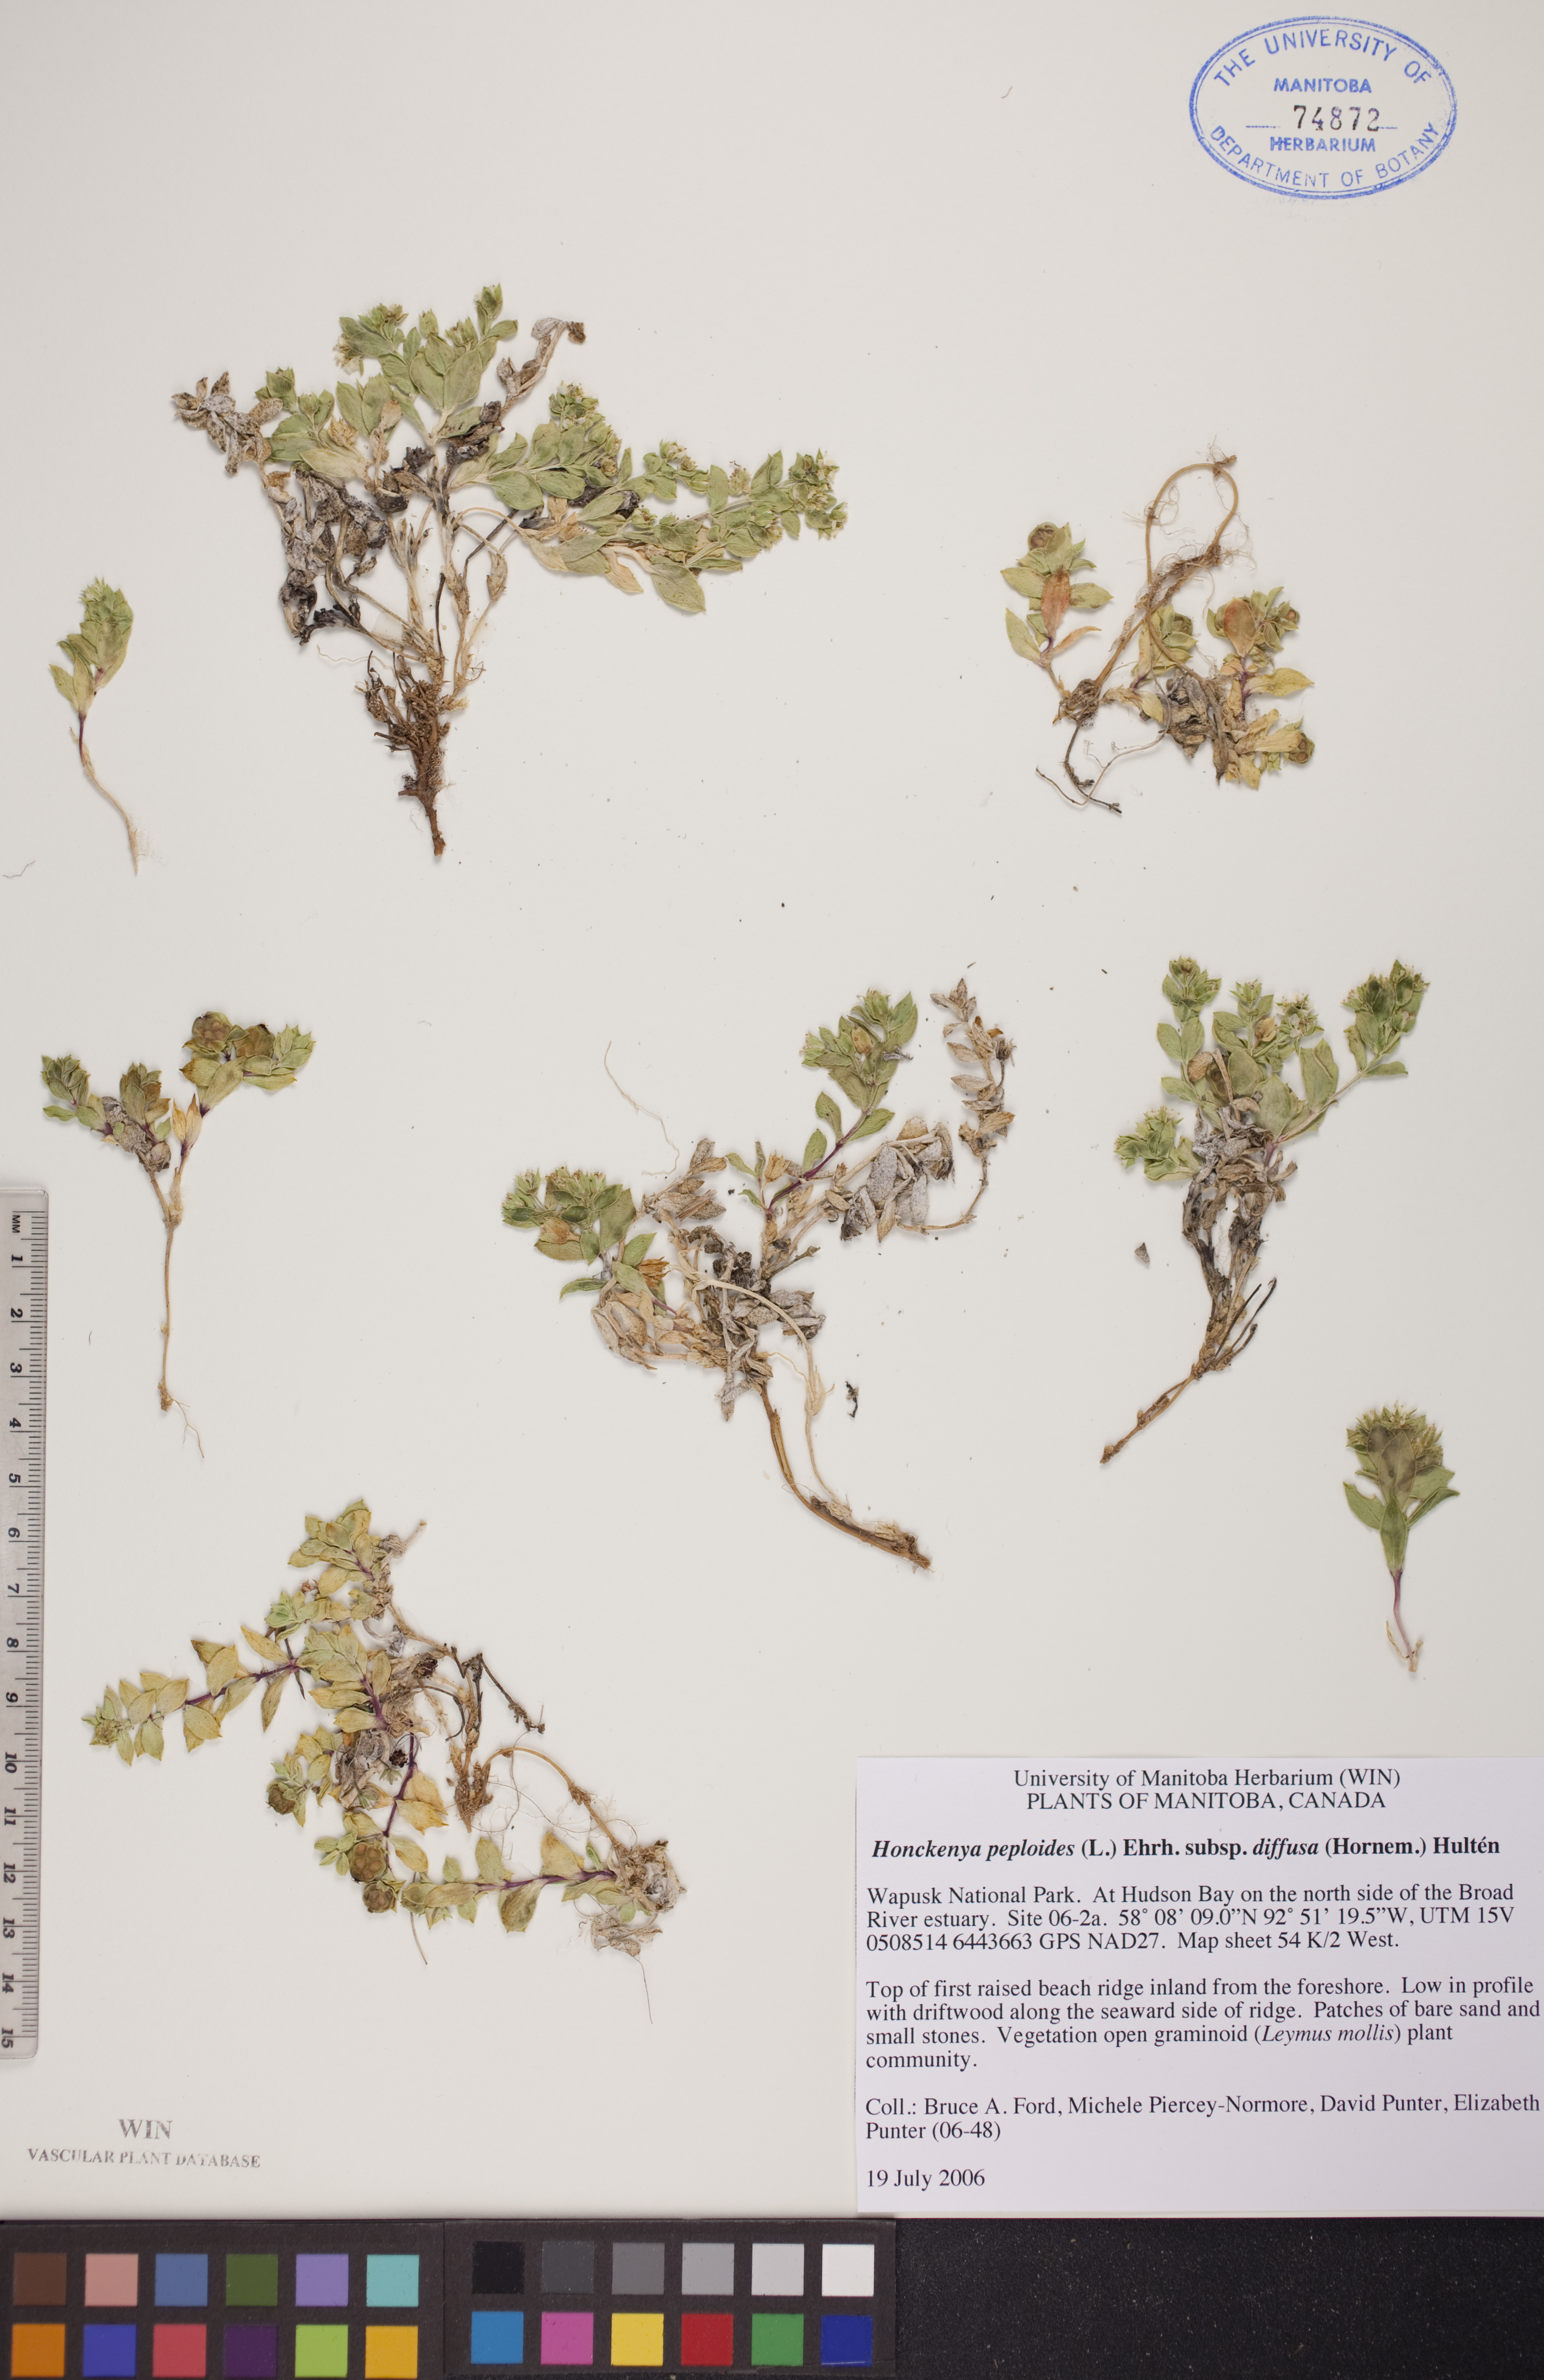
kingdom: Plantae
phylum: Tracheophyta
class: Magnoliopsida
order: Caryophyllales
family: Caryophyllaceae
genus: Honckenya
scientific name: Honckenya peploides
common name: Sea sandwort
